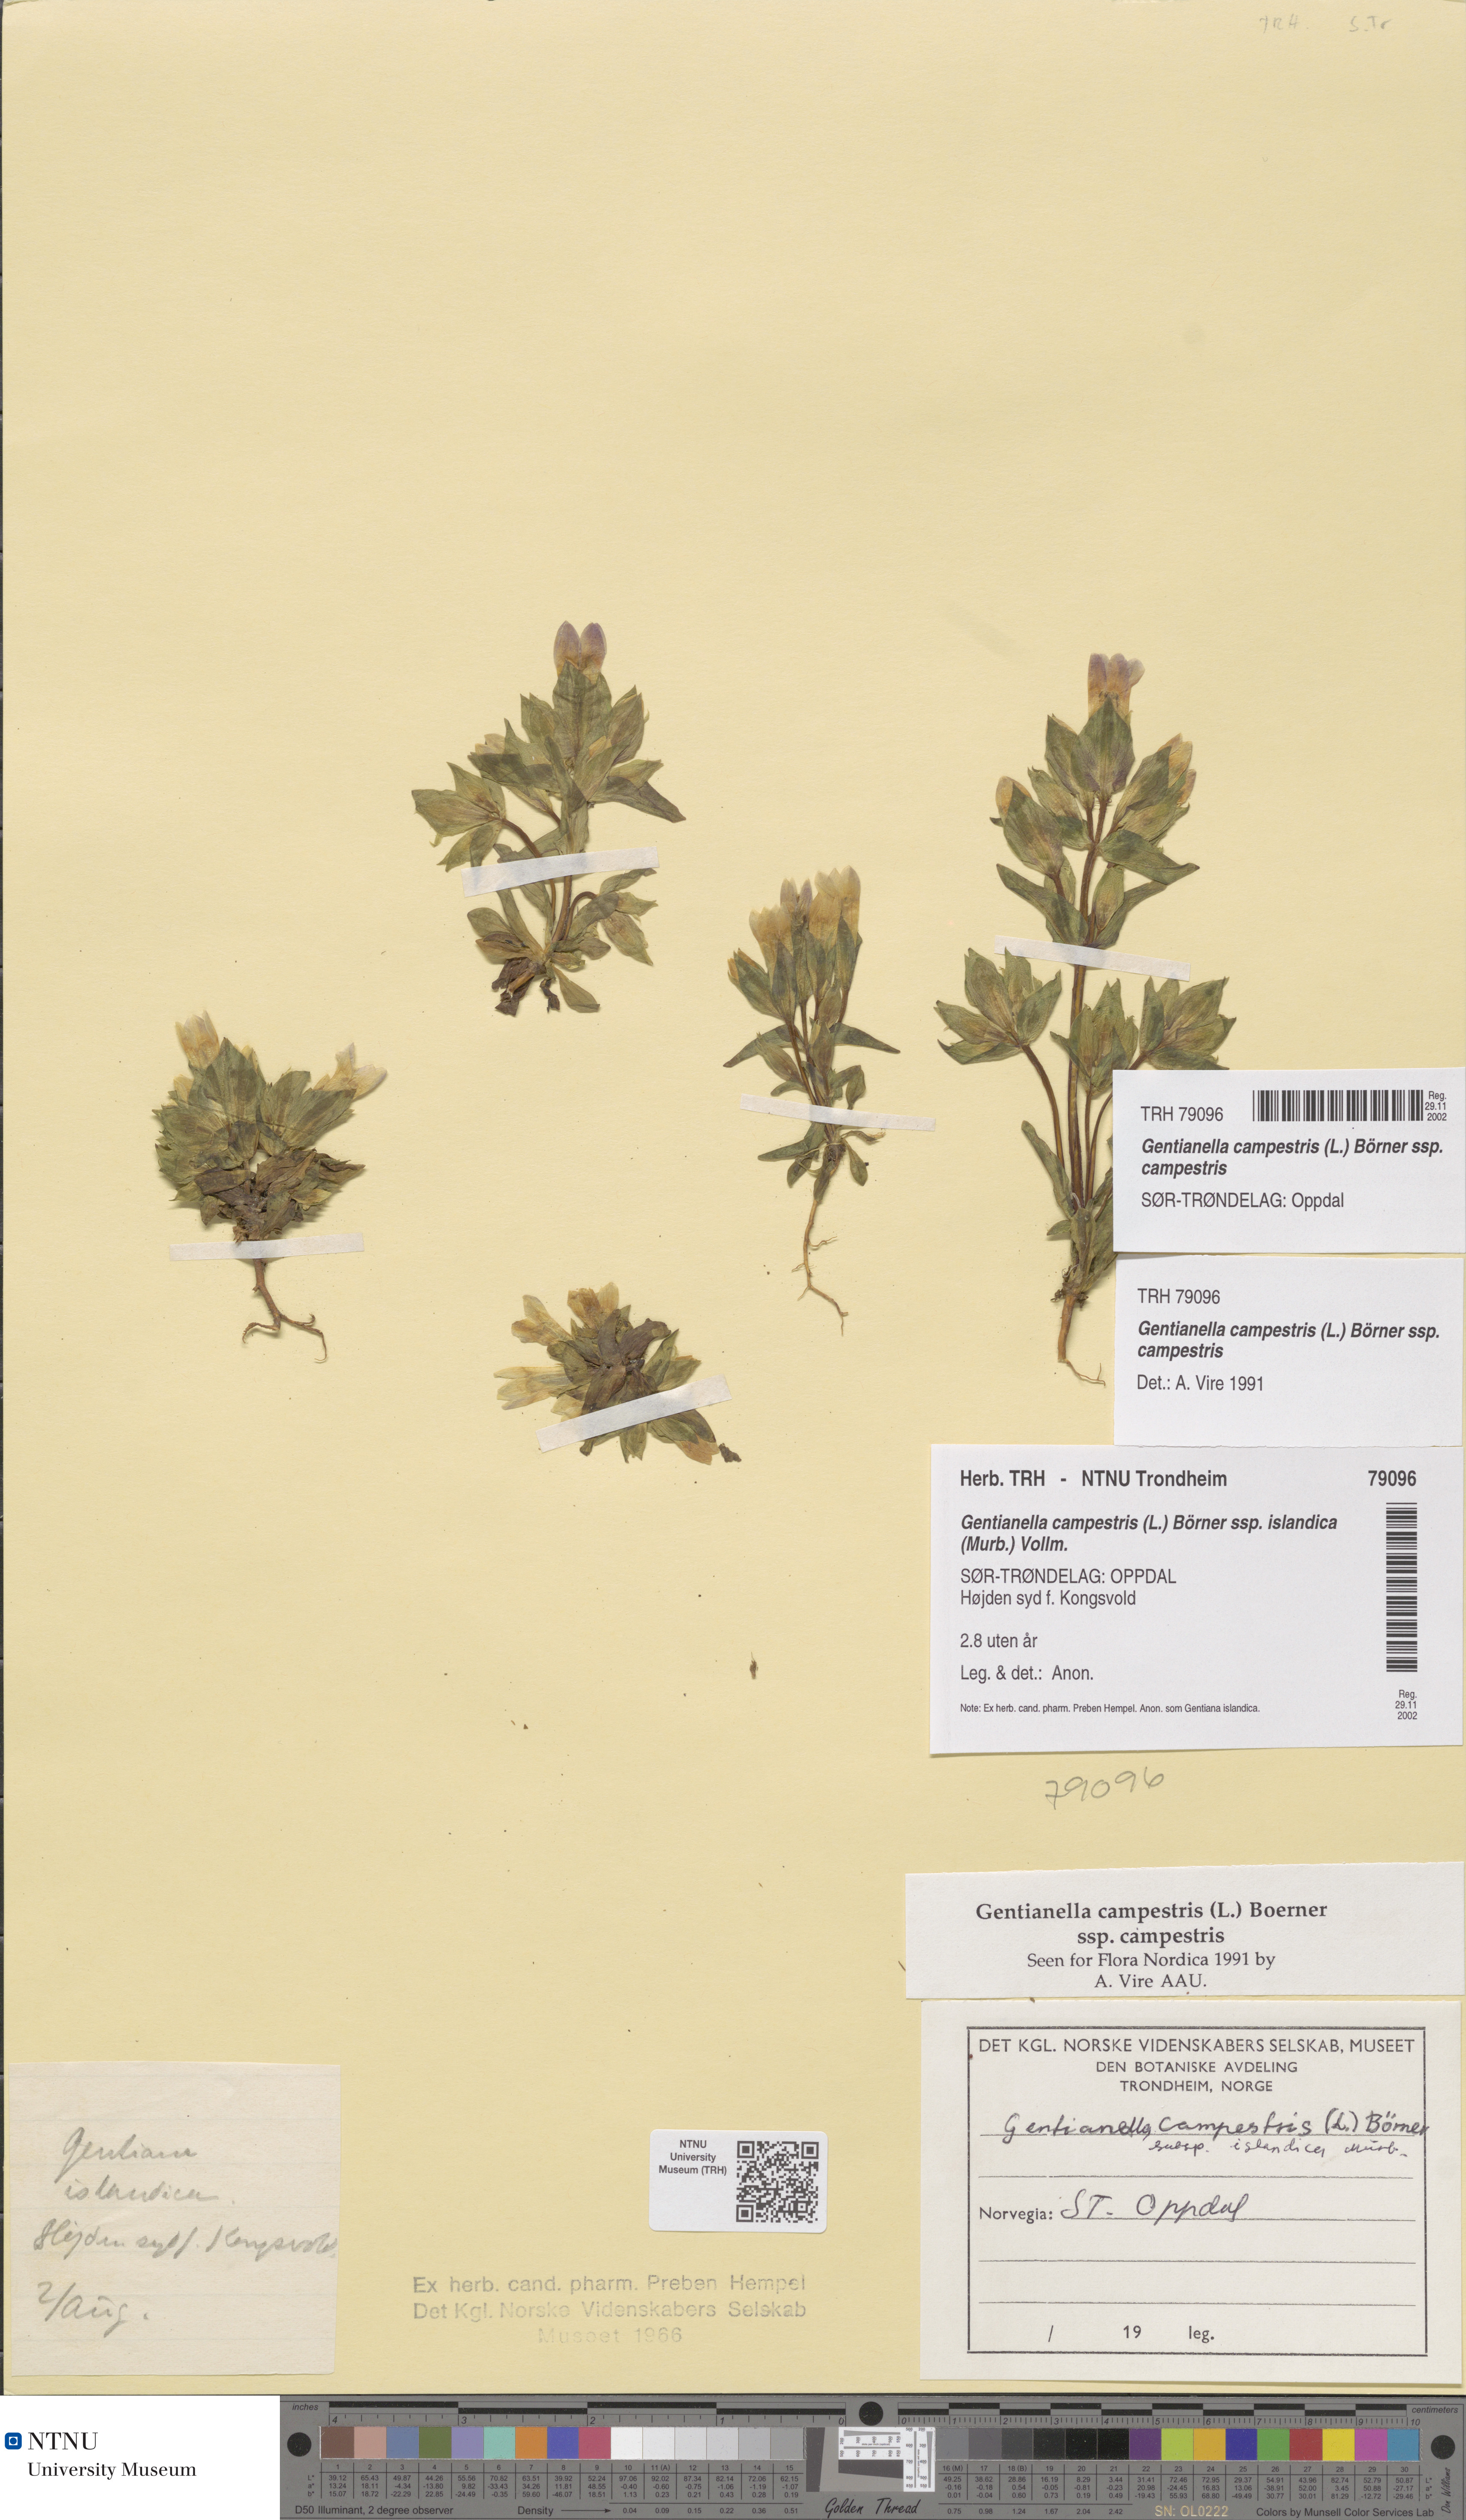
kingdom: Plantae
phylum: Tracheophyta
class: Magnoliopsida
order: Gentianales
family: Gentianaceae
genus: Gentianella
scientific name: Gentianella campestris
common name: Field gentian
